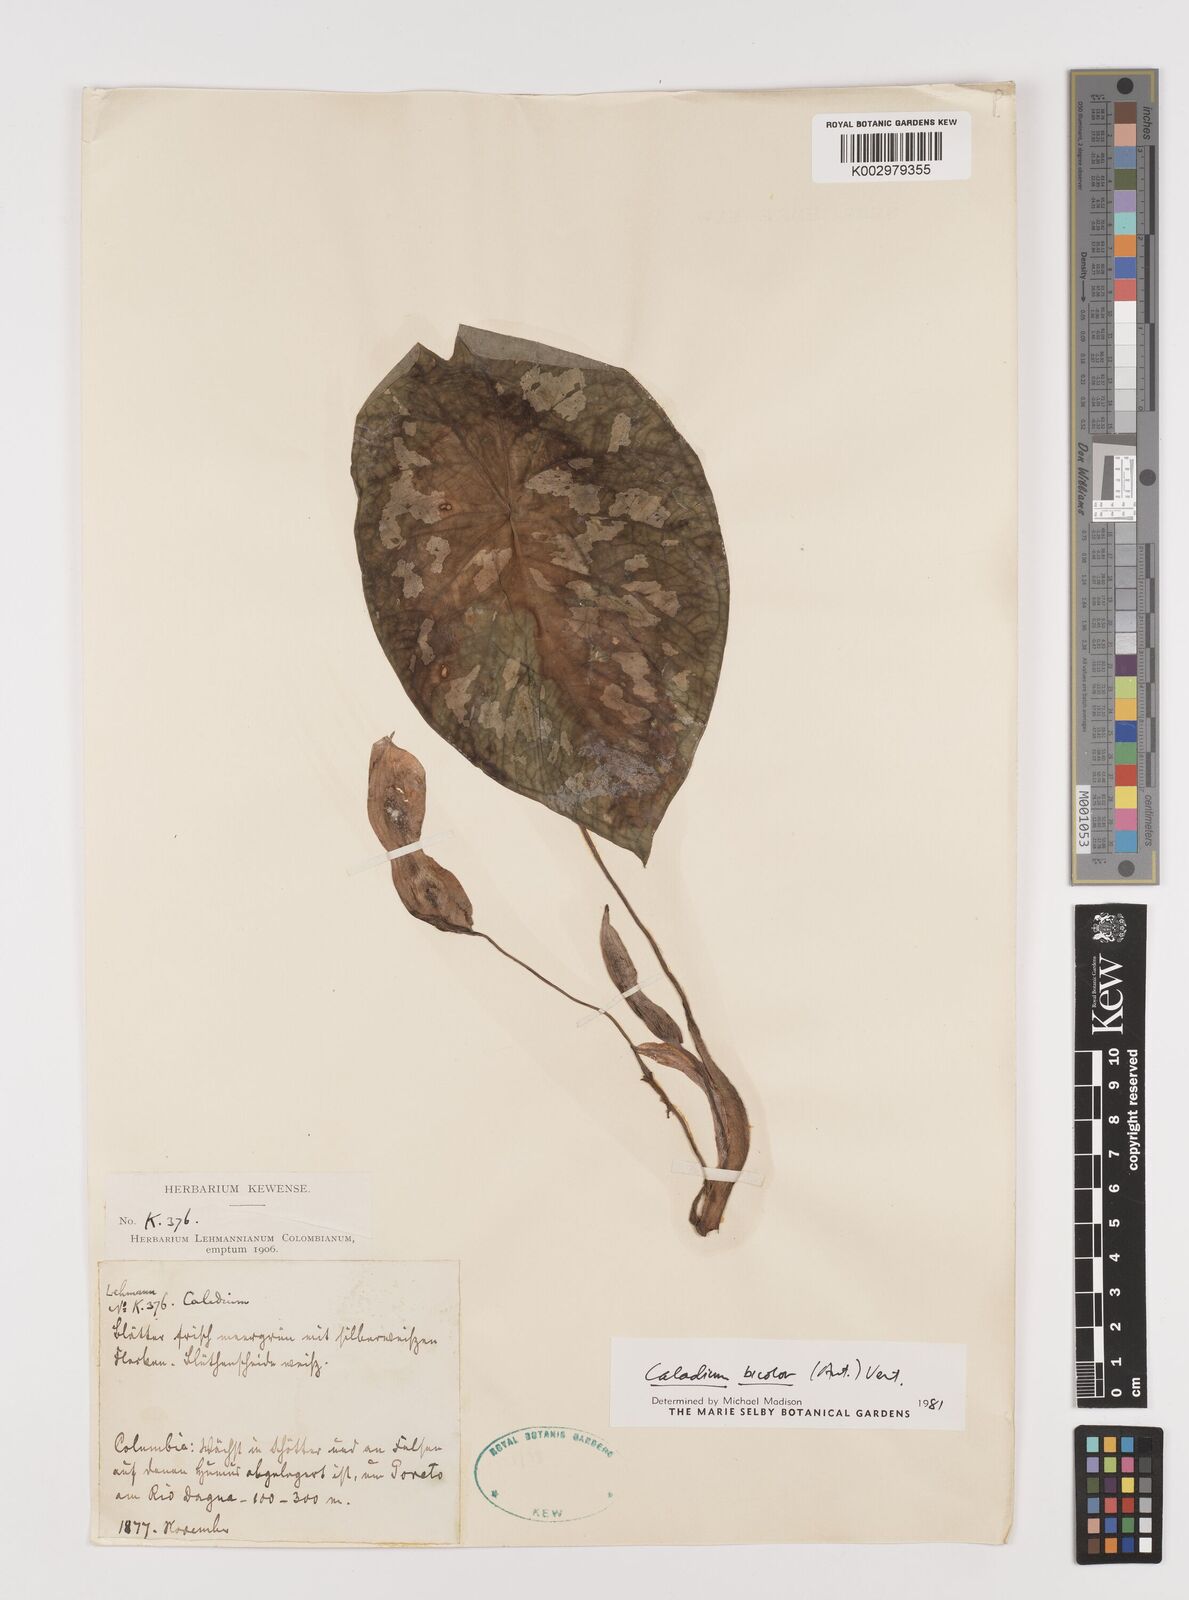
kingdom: Plantae
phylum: Tracheophyta
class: Liliopsida
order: Alismatales
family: Araceae
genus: Caladium
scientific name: Caladium bicolor
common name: Artist's pallet
